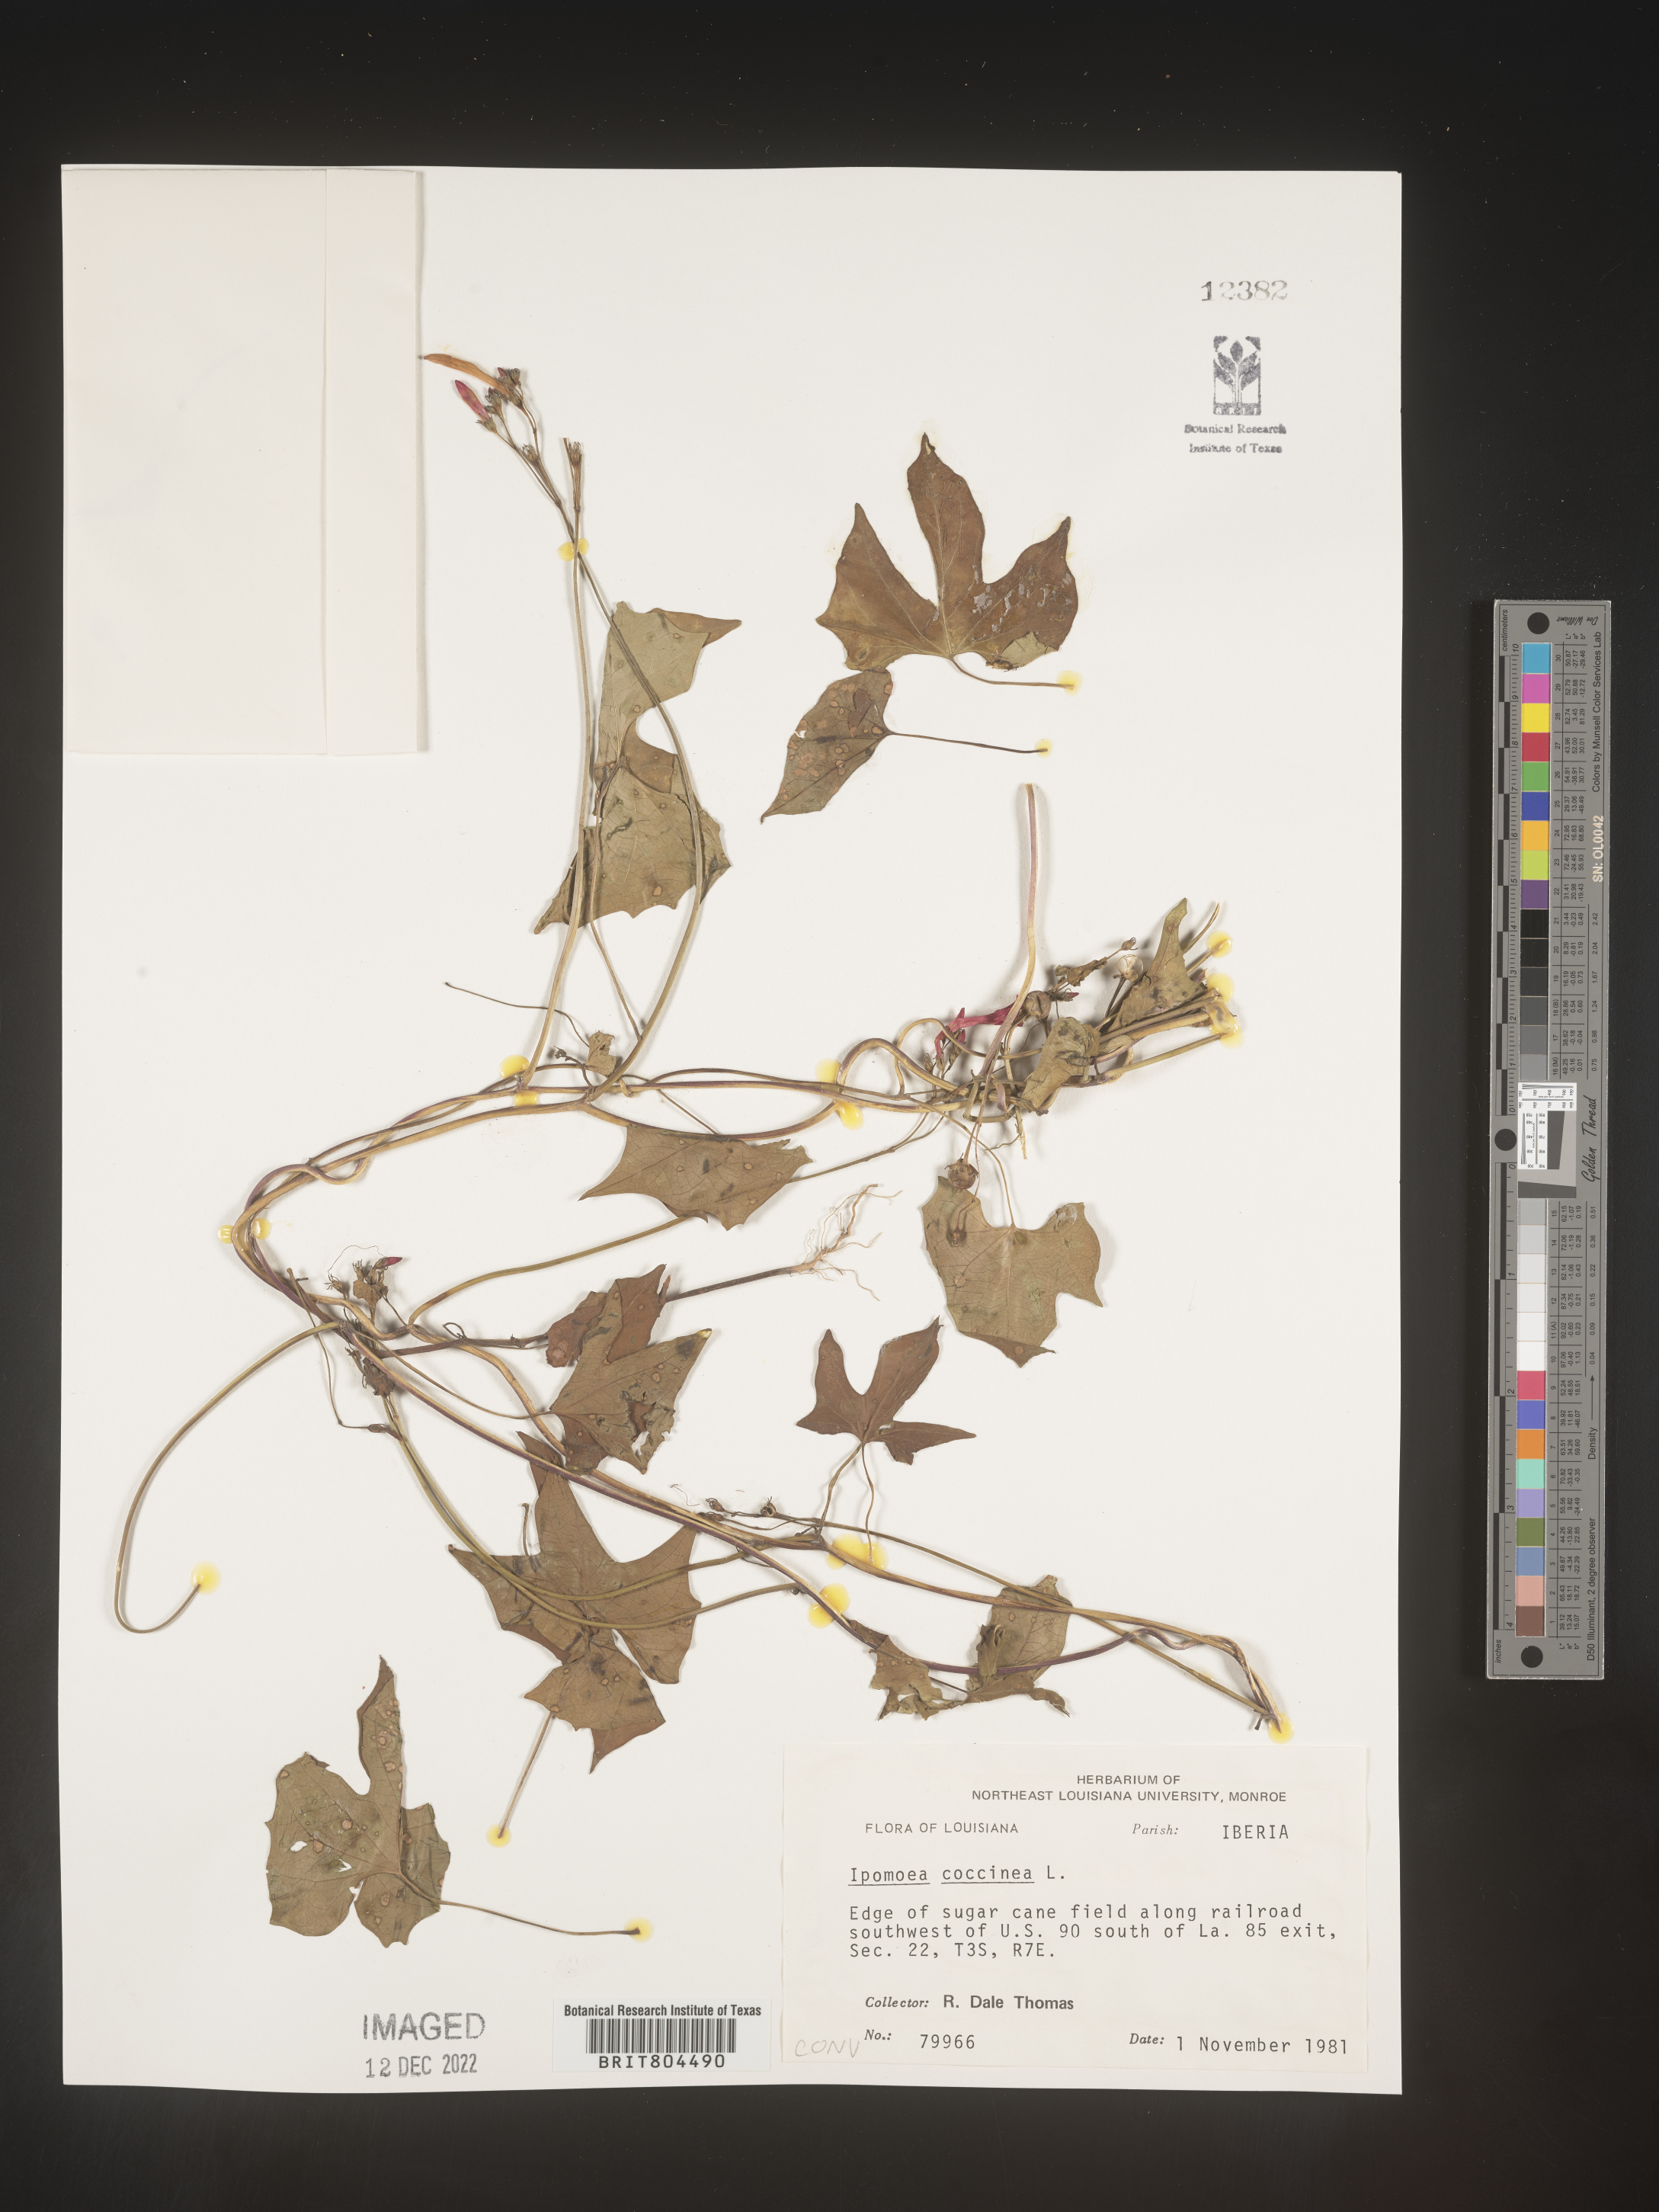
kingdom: Plantae
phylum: Tracheophyta
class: Magnoliopsida
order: Solanales
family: Convolvulaceae
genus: Ipomoea
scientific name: Ipomoea coccinea
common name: Red morning-glory
